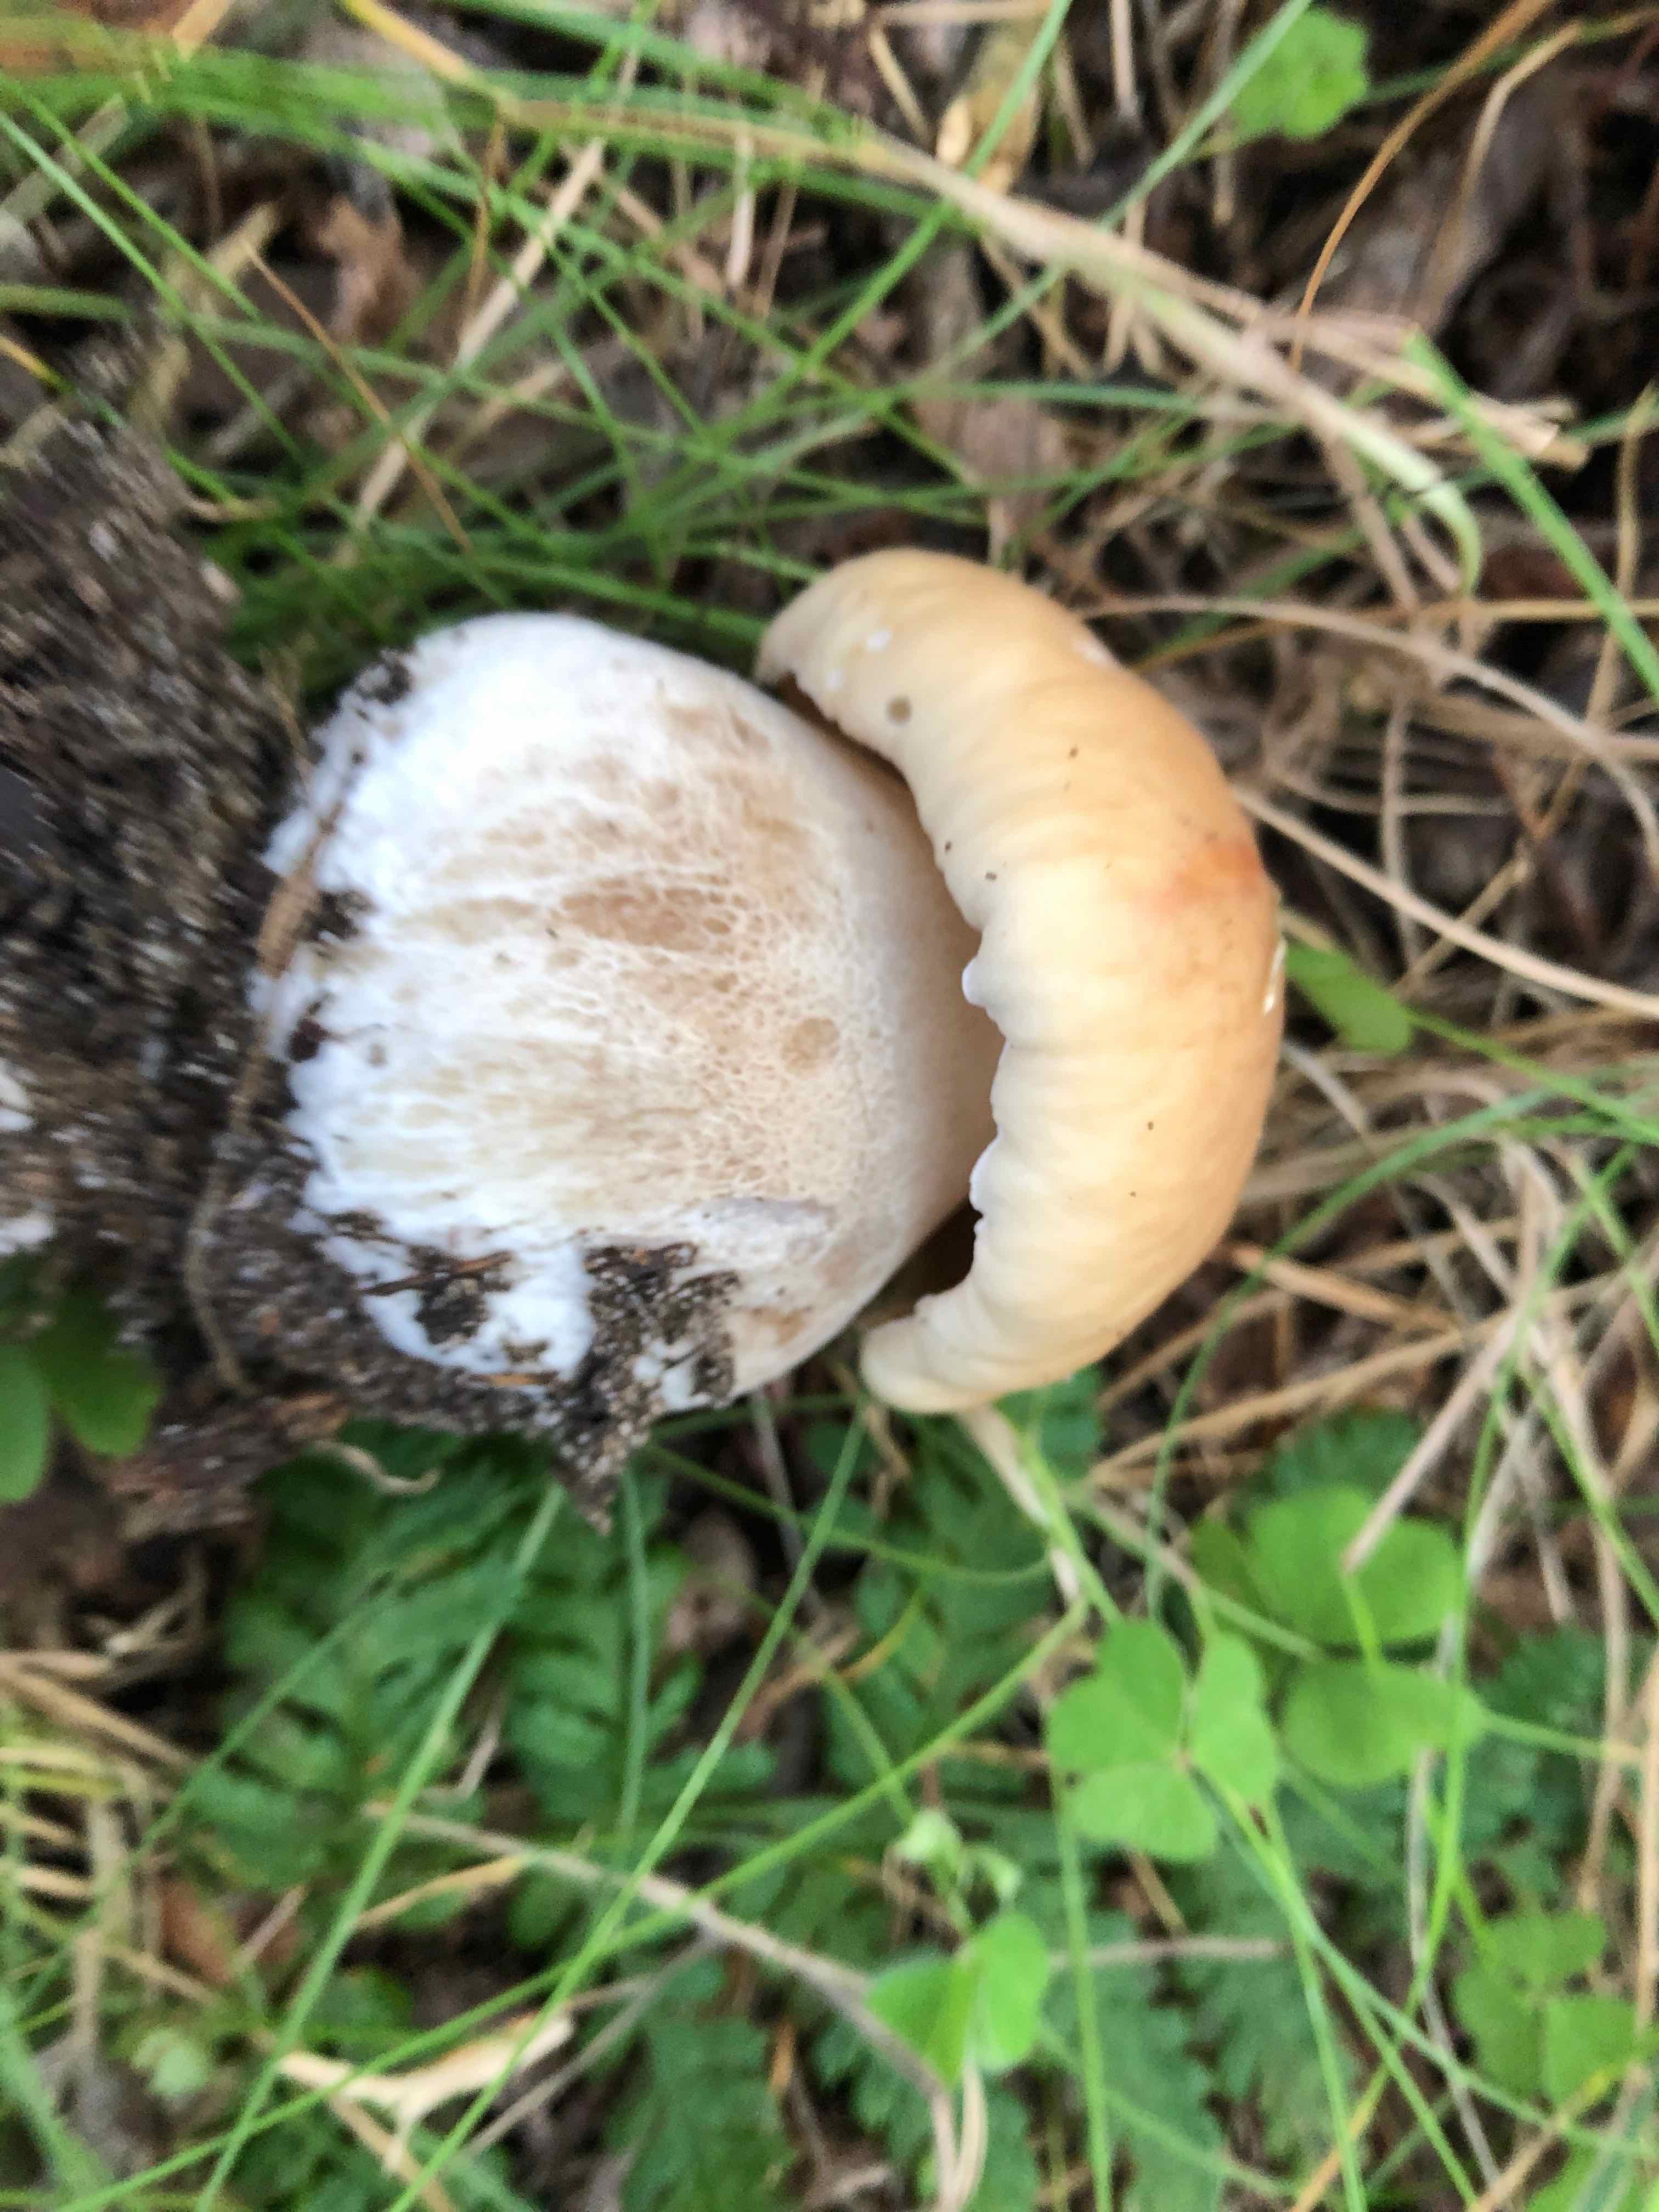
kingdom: Fungi
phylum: Basidiomycota
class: Agaricomycetes
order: Boletales
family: Boletaceae
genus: Boletus
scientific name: Boletus edulis
